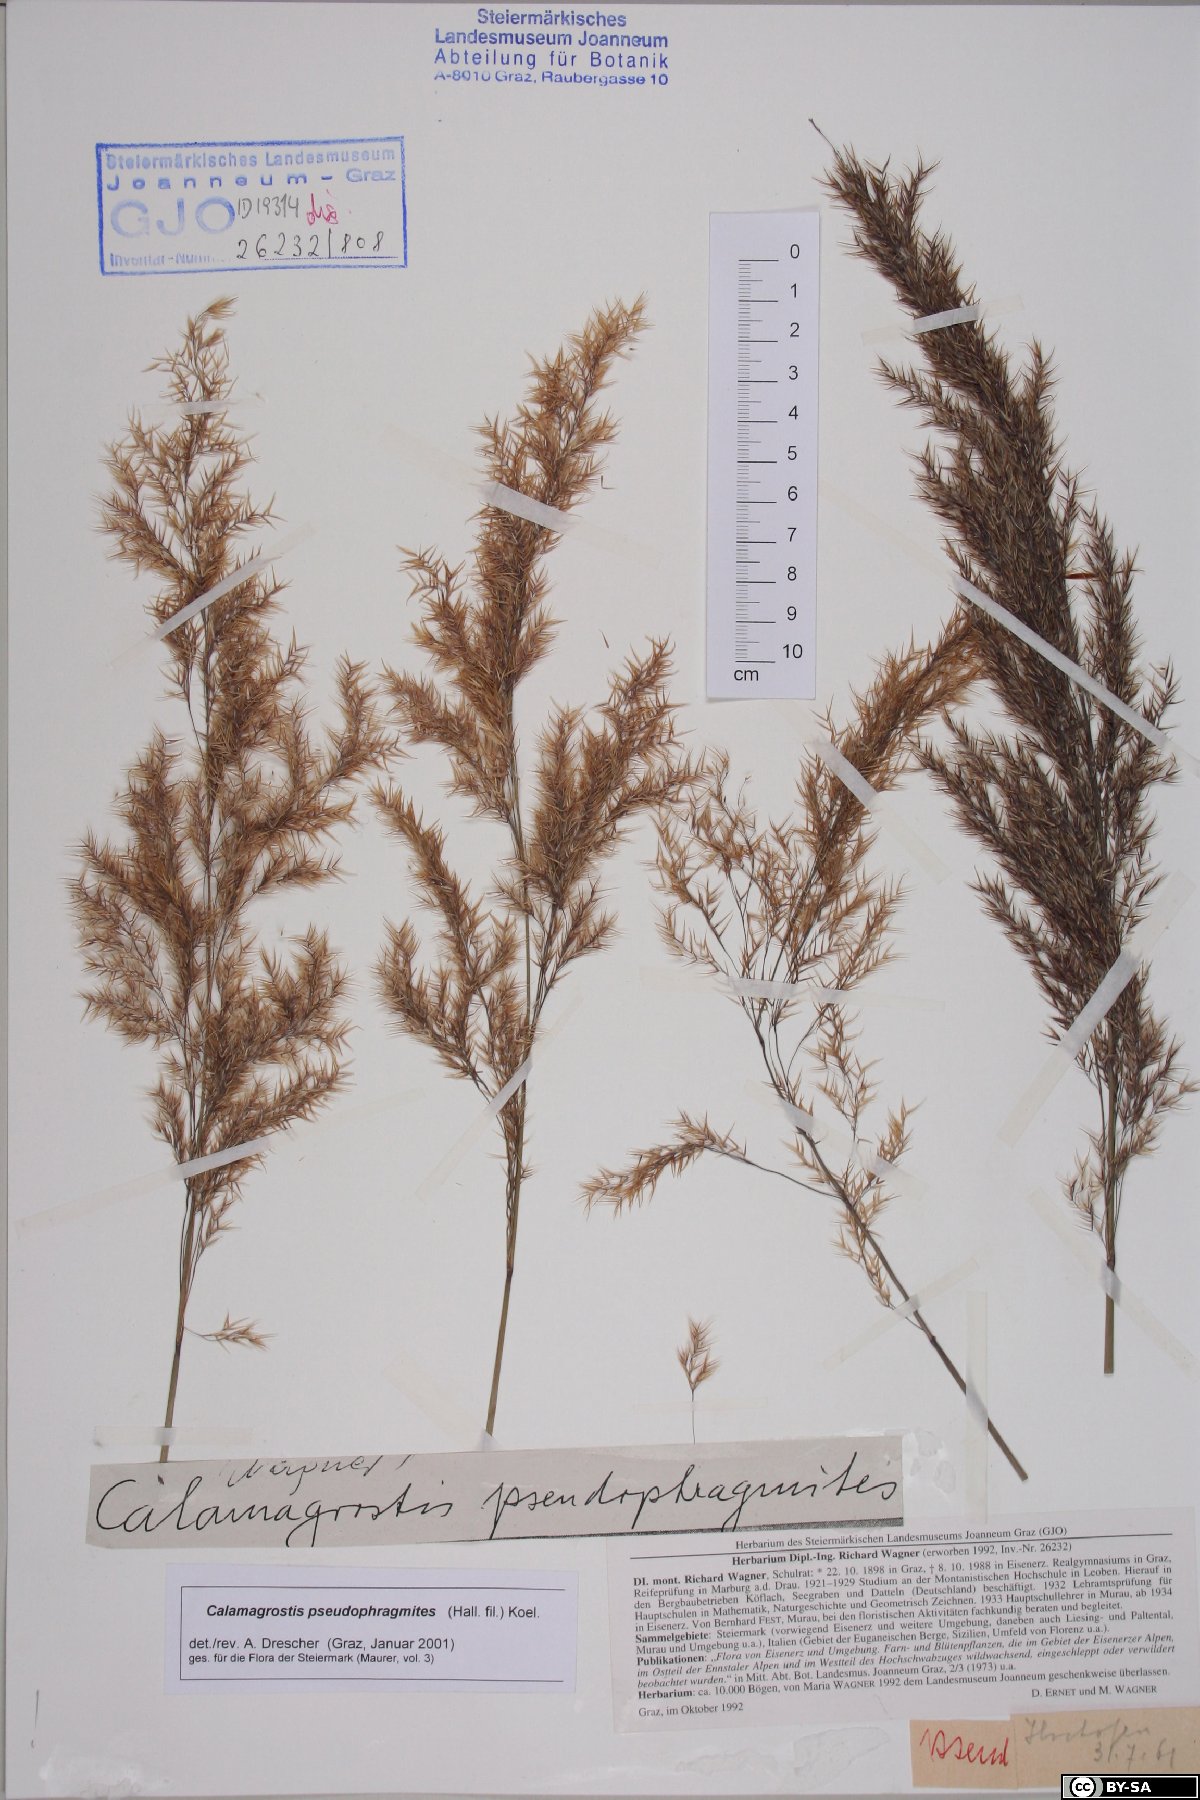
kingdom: Plantae
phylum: Tracheophyta
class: Liliopsida
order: Poales
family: Poaceae
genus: Calamagrostis
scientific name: Calamagrostis pseudophragmites
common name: Coastal small-reed
